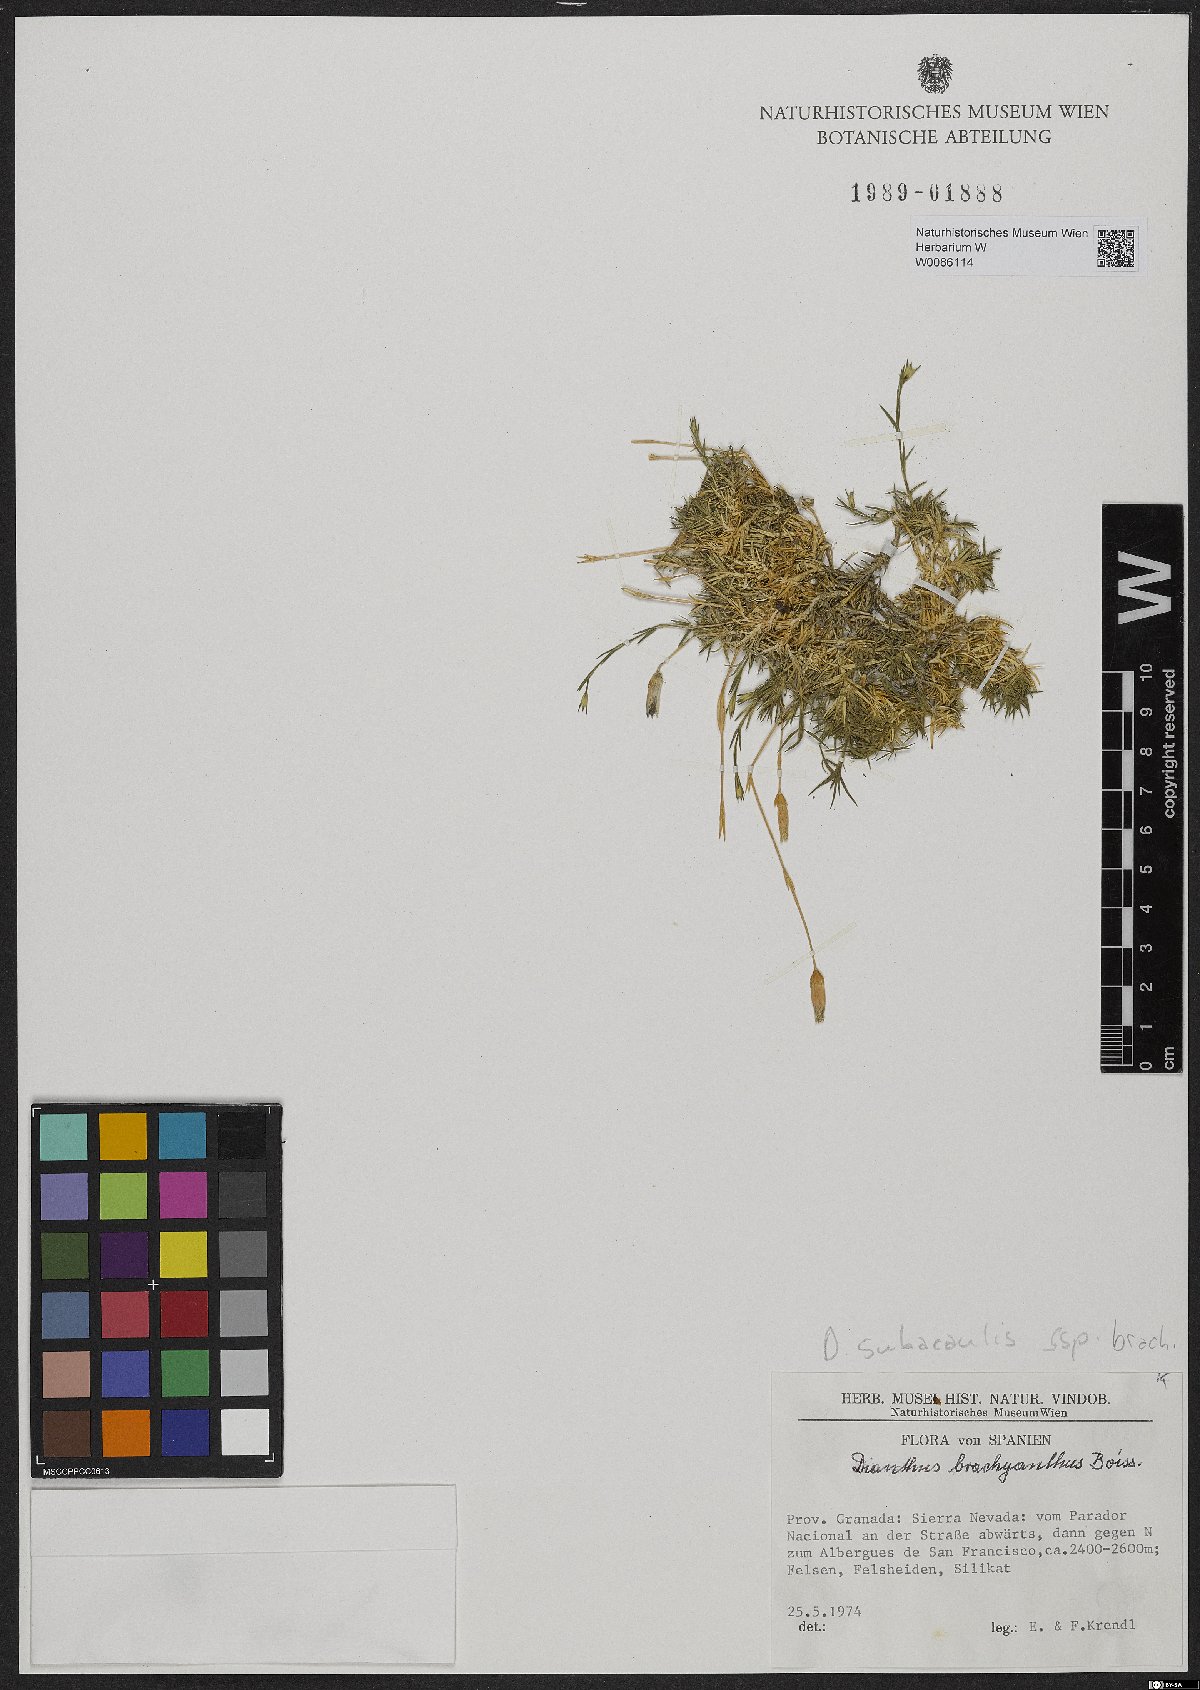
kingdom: Plantae
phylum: Tracheophyta
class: Magnoliopsida
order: Caryophyllales
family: Caryophyllaceae
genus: Dianthus
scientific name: Dianthus pungens
